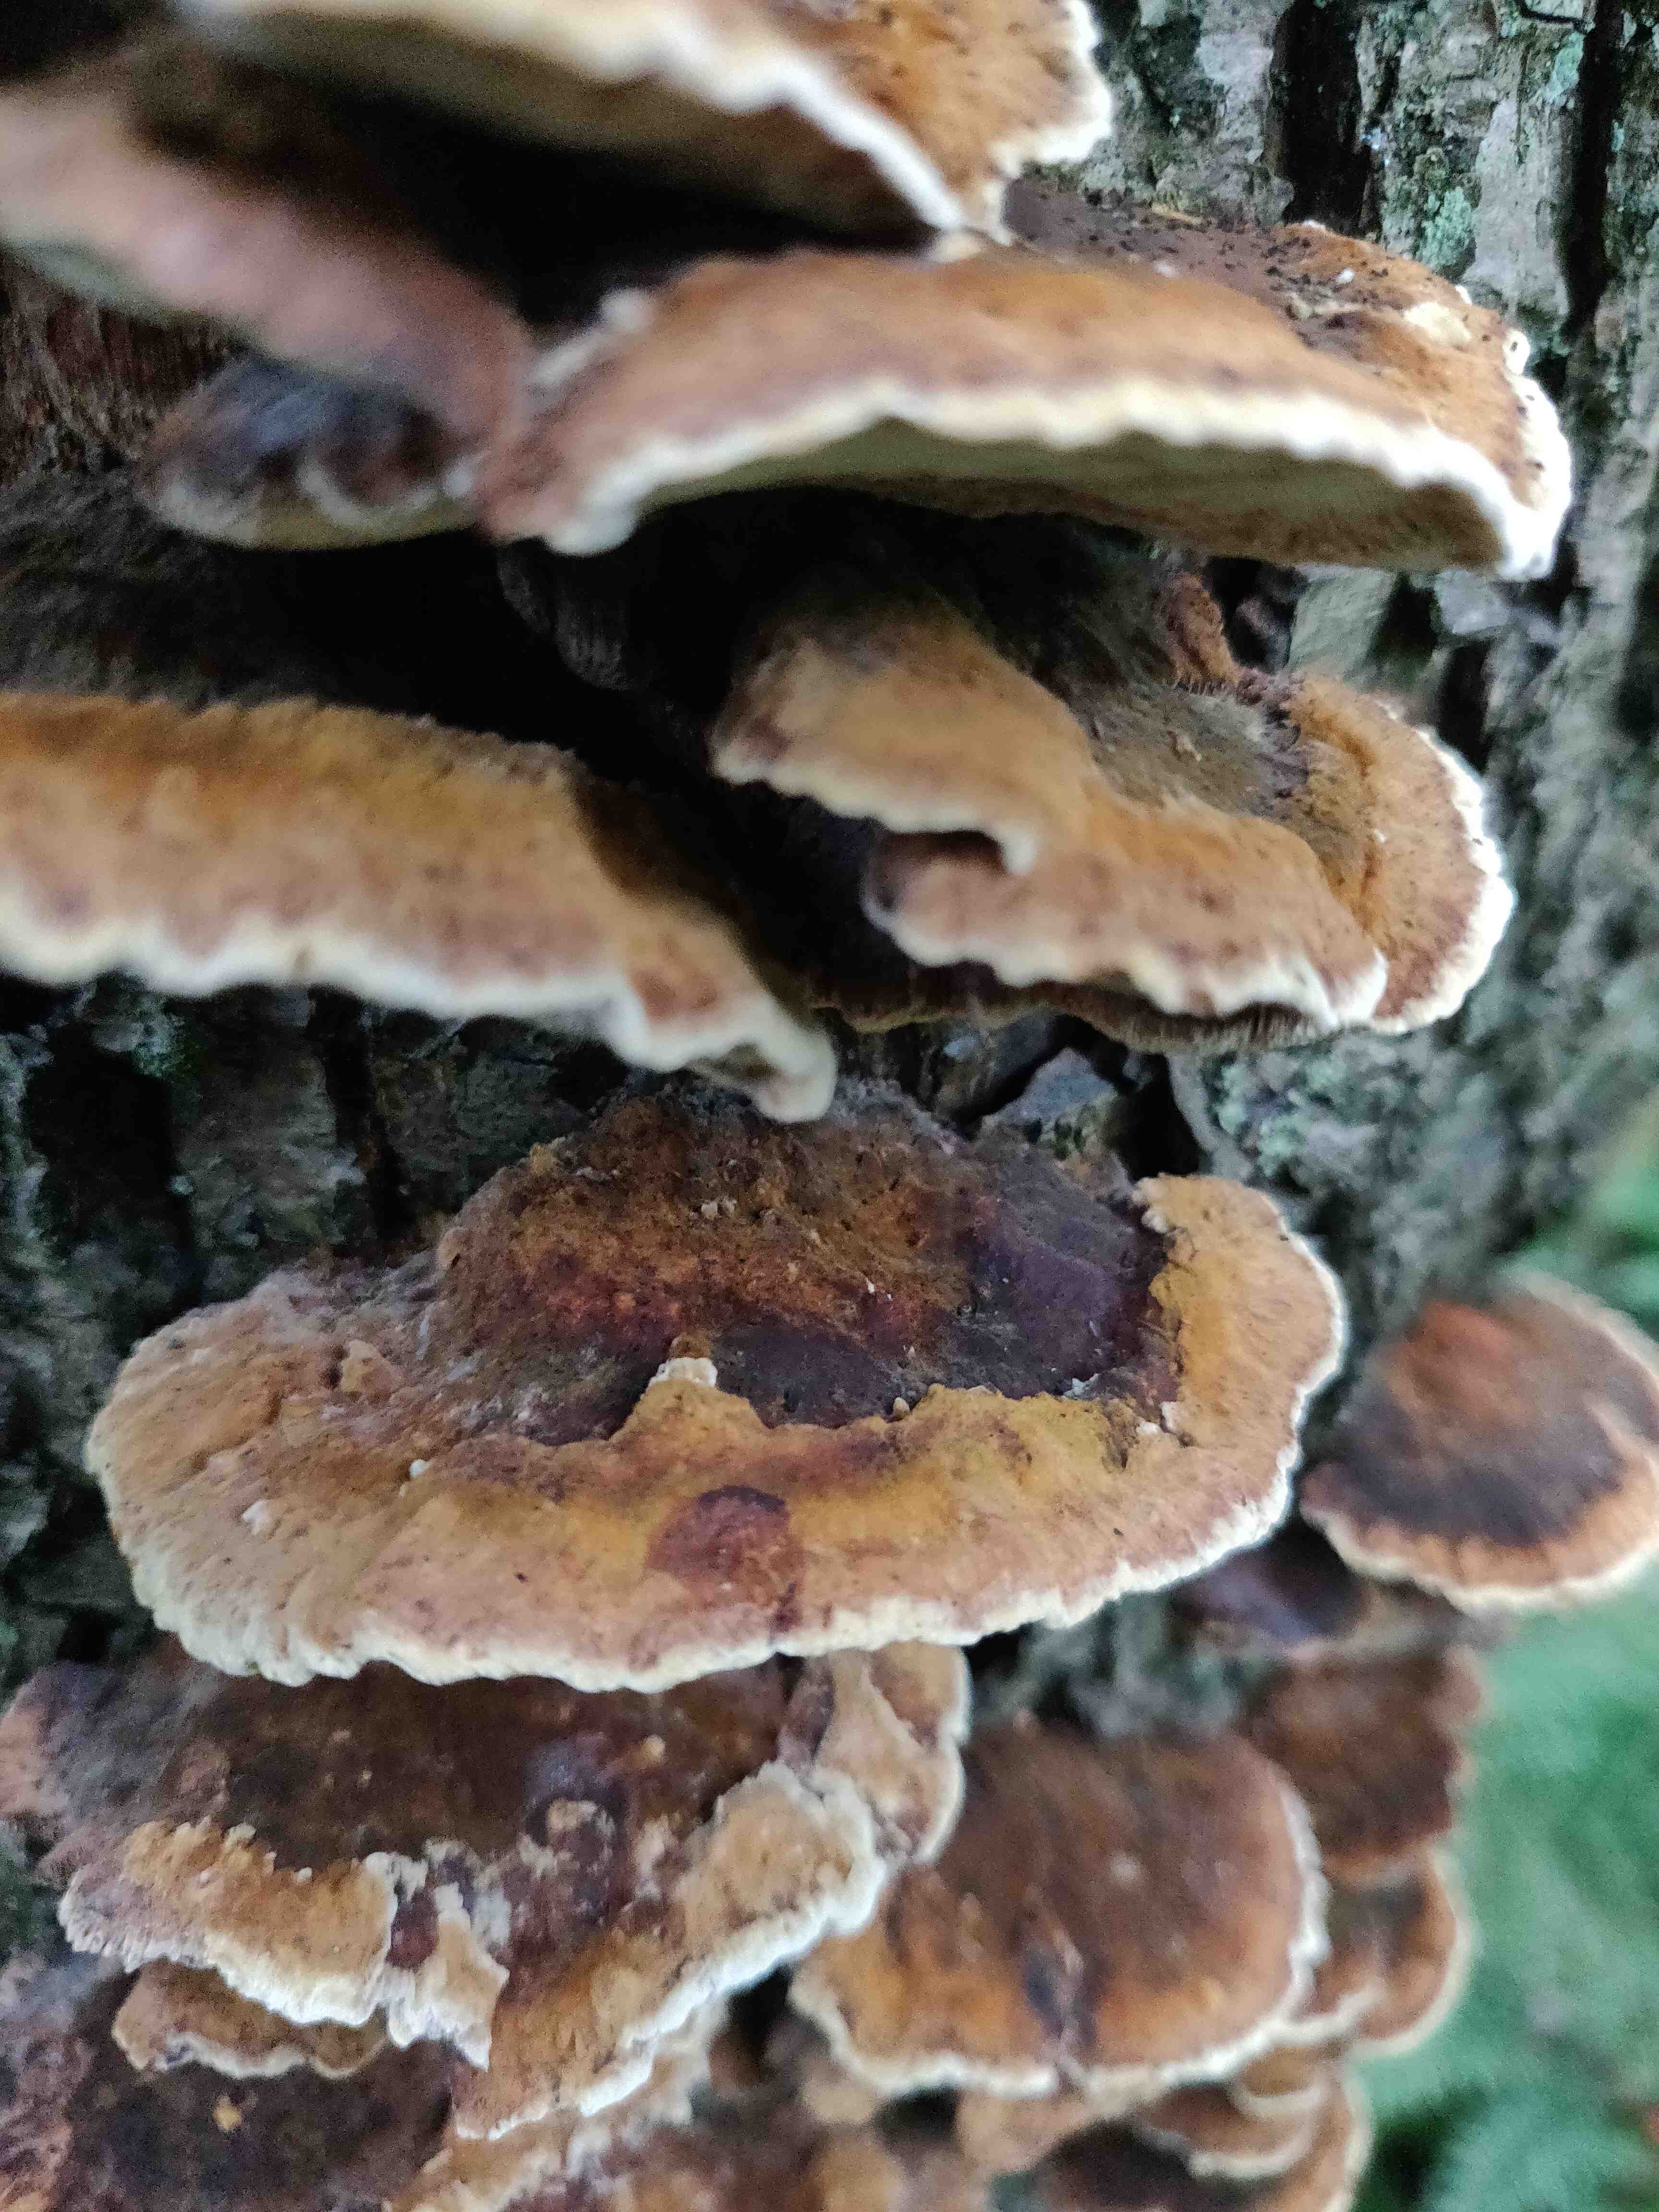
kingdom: Fungi
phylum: Basidiomycota
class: Agaricomycetes
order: Hymenochaetales
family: Hymenochaetaceae
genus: Xanthoporia
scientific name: Xanthoporia radiata
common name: elle-spejlporesvamp
